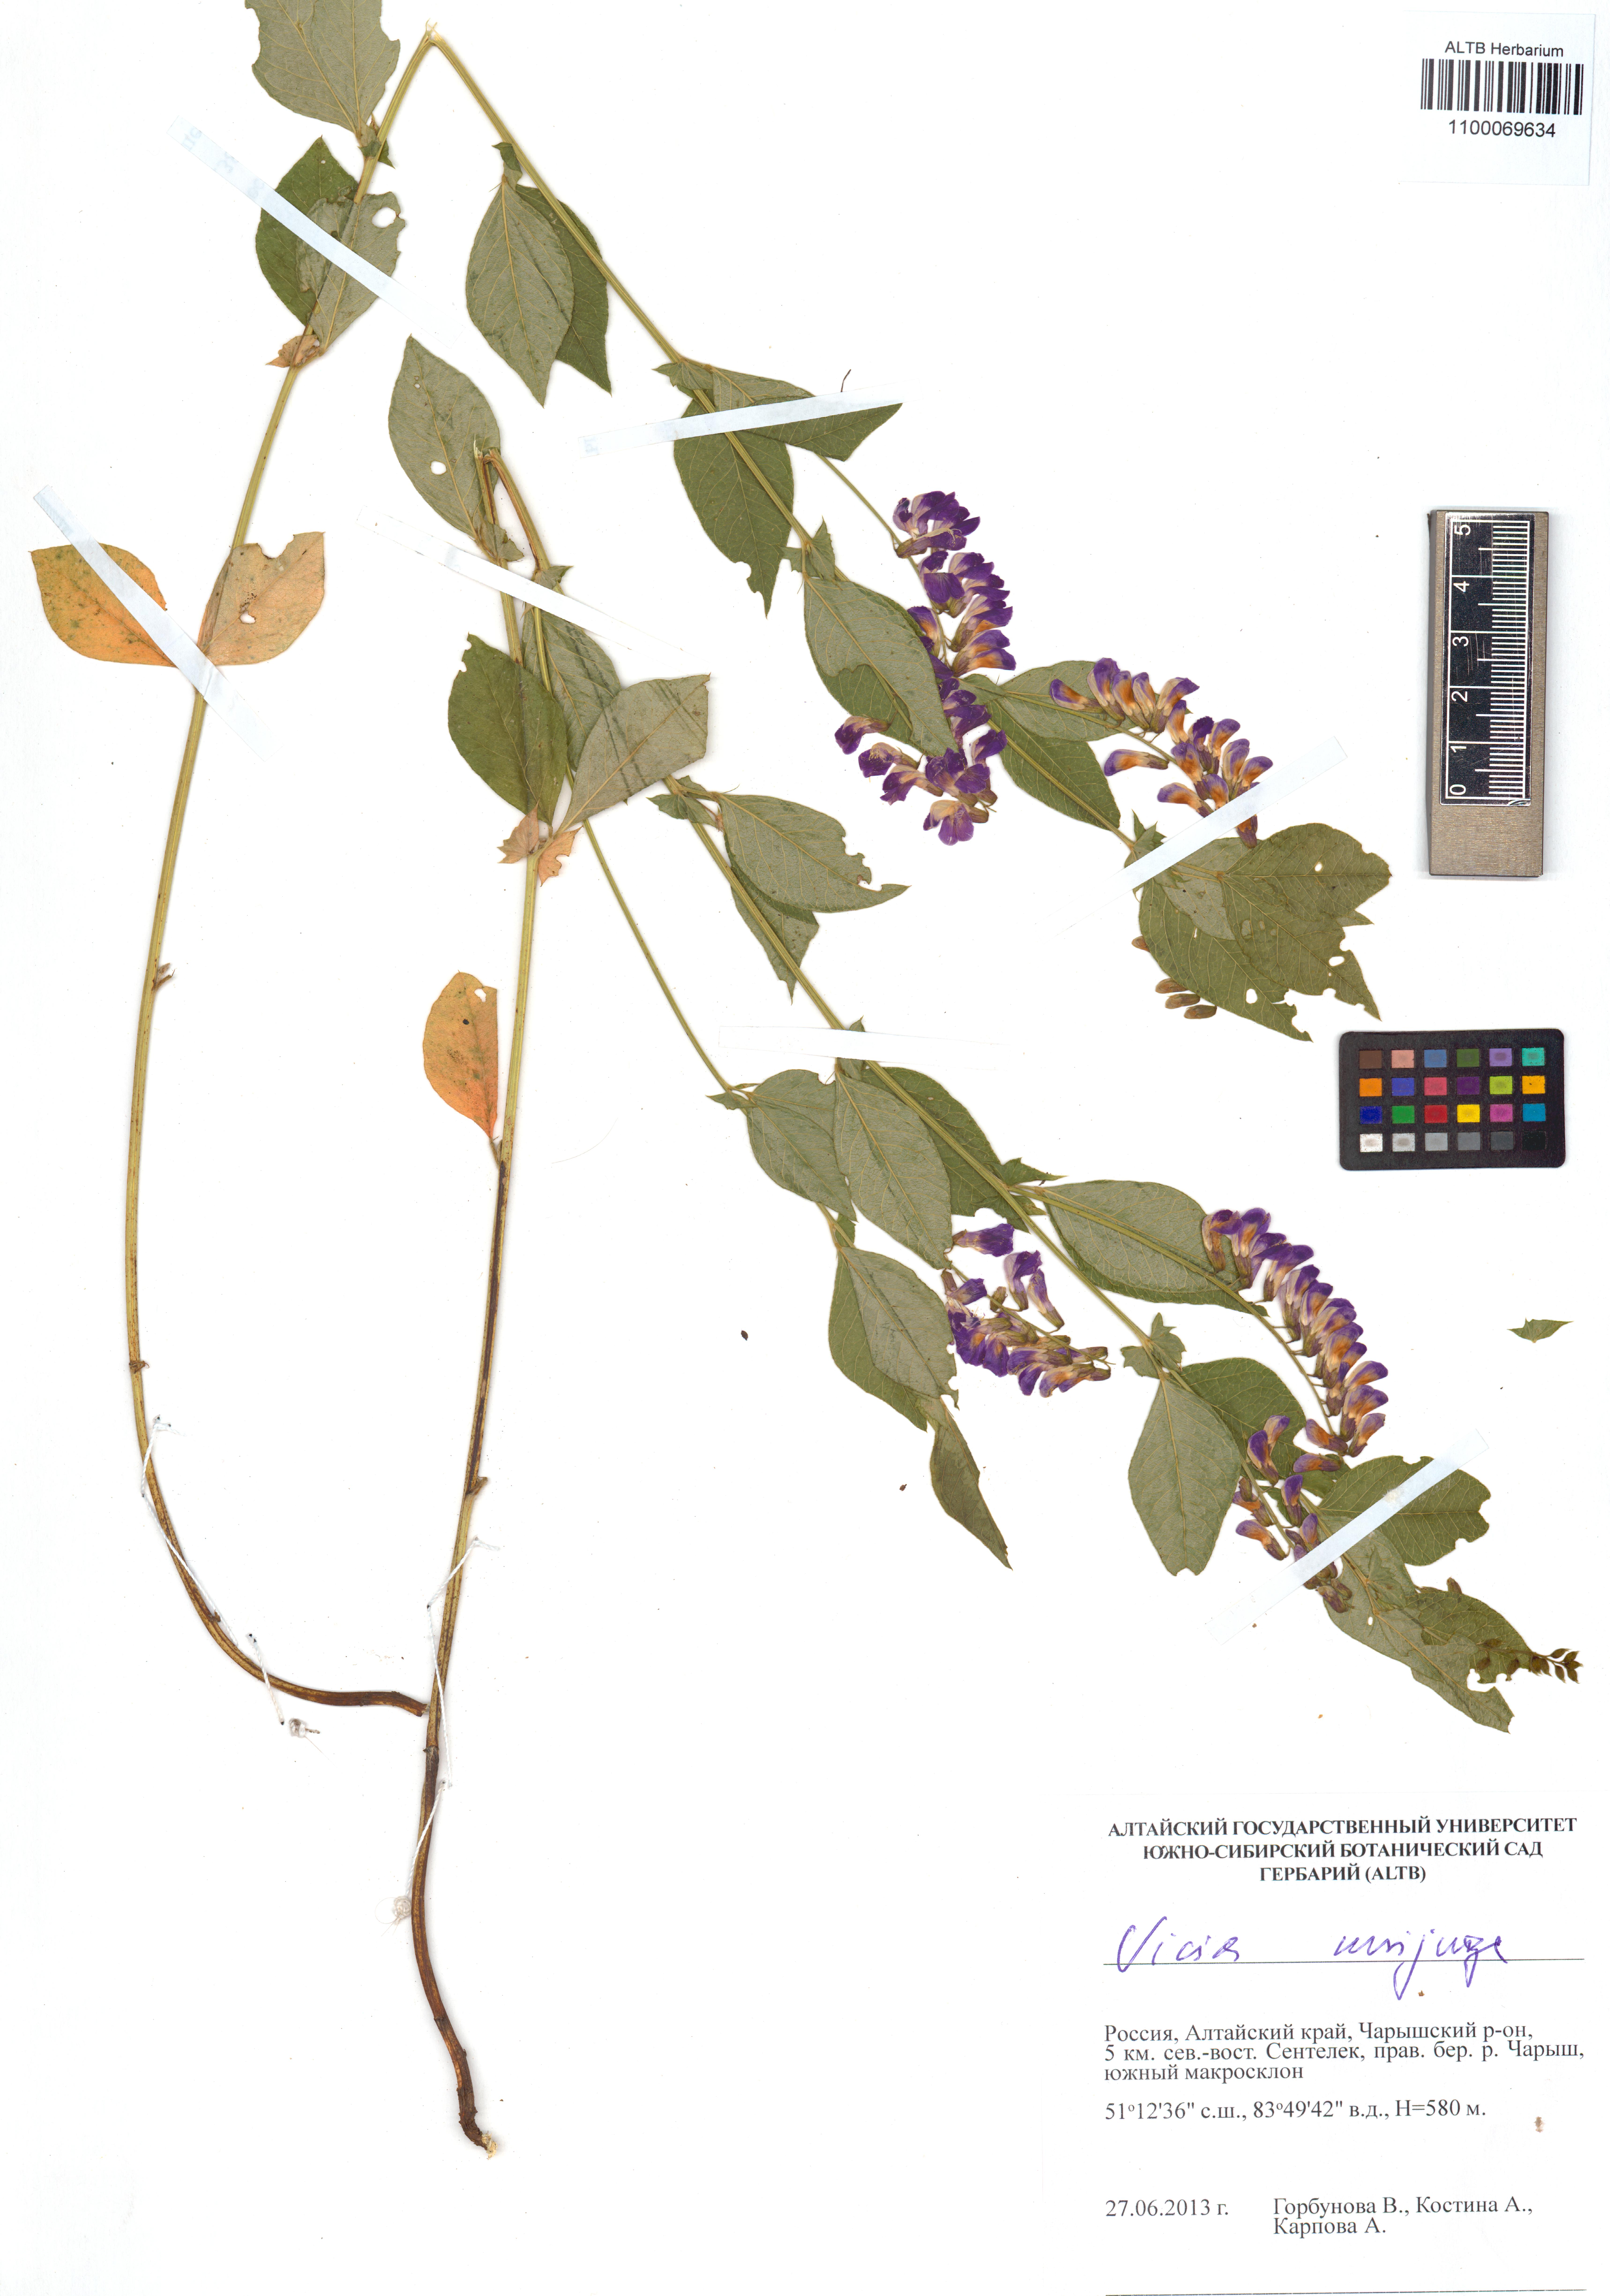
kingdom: Plantae
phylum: Tracheophyta
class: Magnoliopsida
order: Fabales
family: Fabaceae
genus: Vicia
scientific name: Vicia unijuga
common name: Two-leaf vetch
